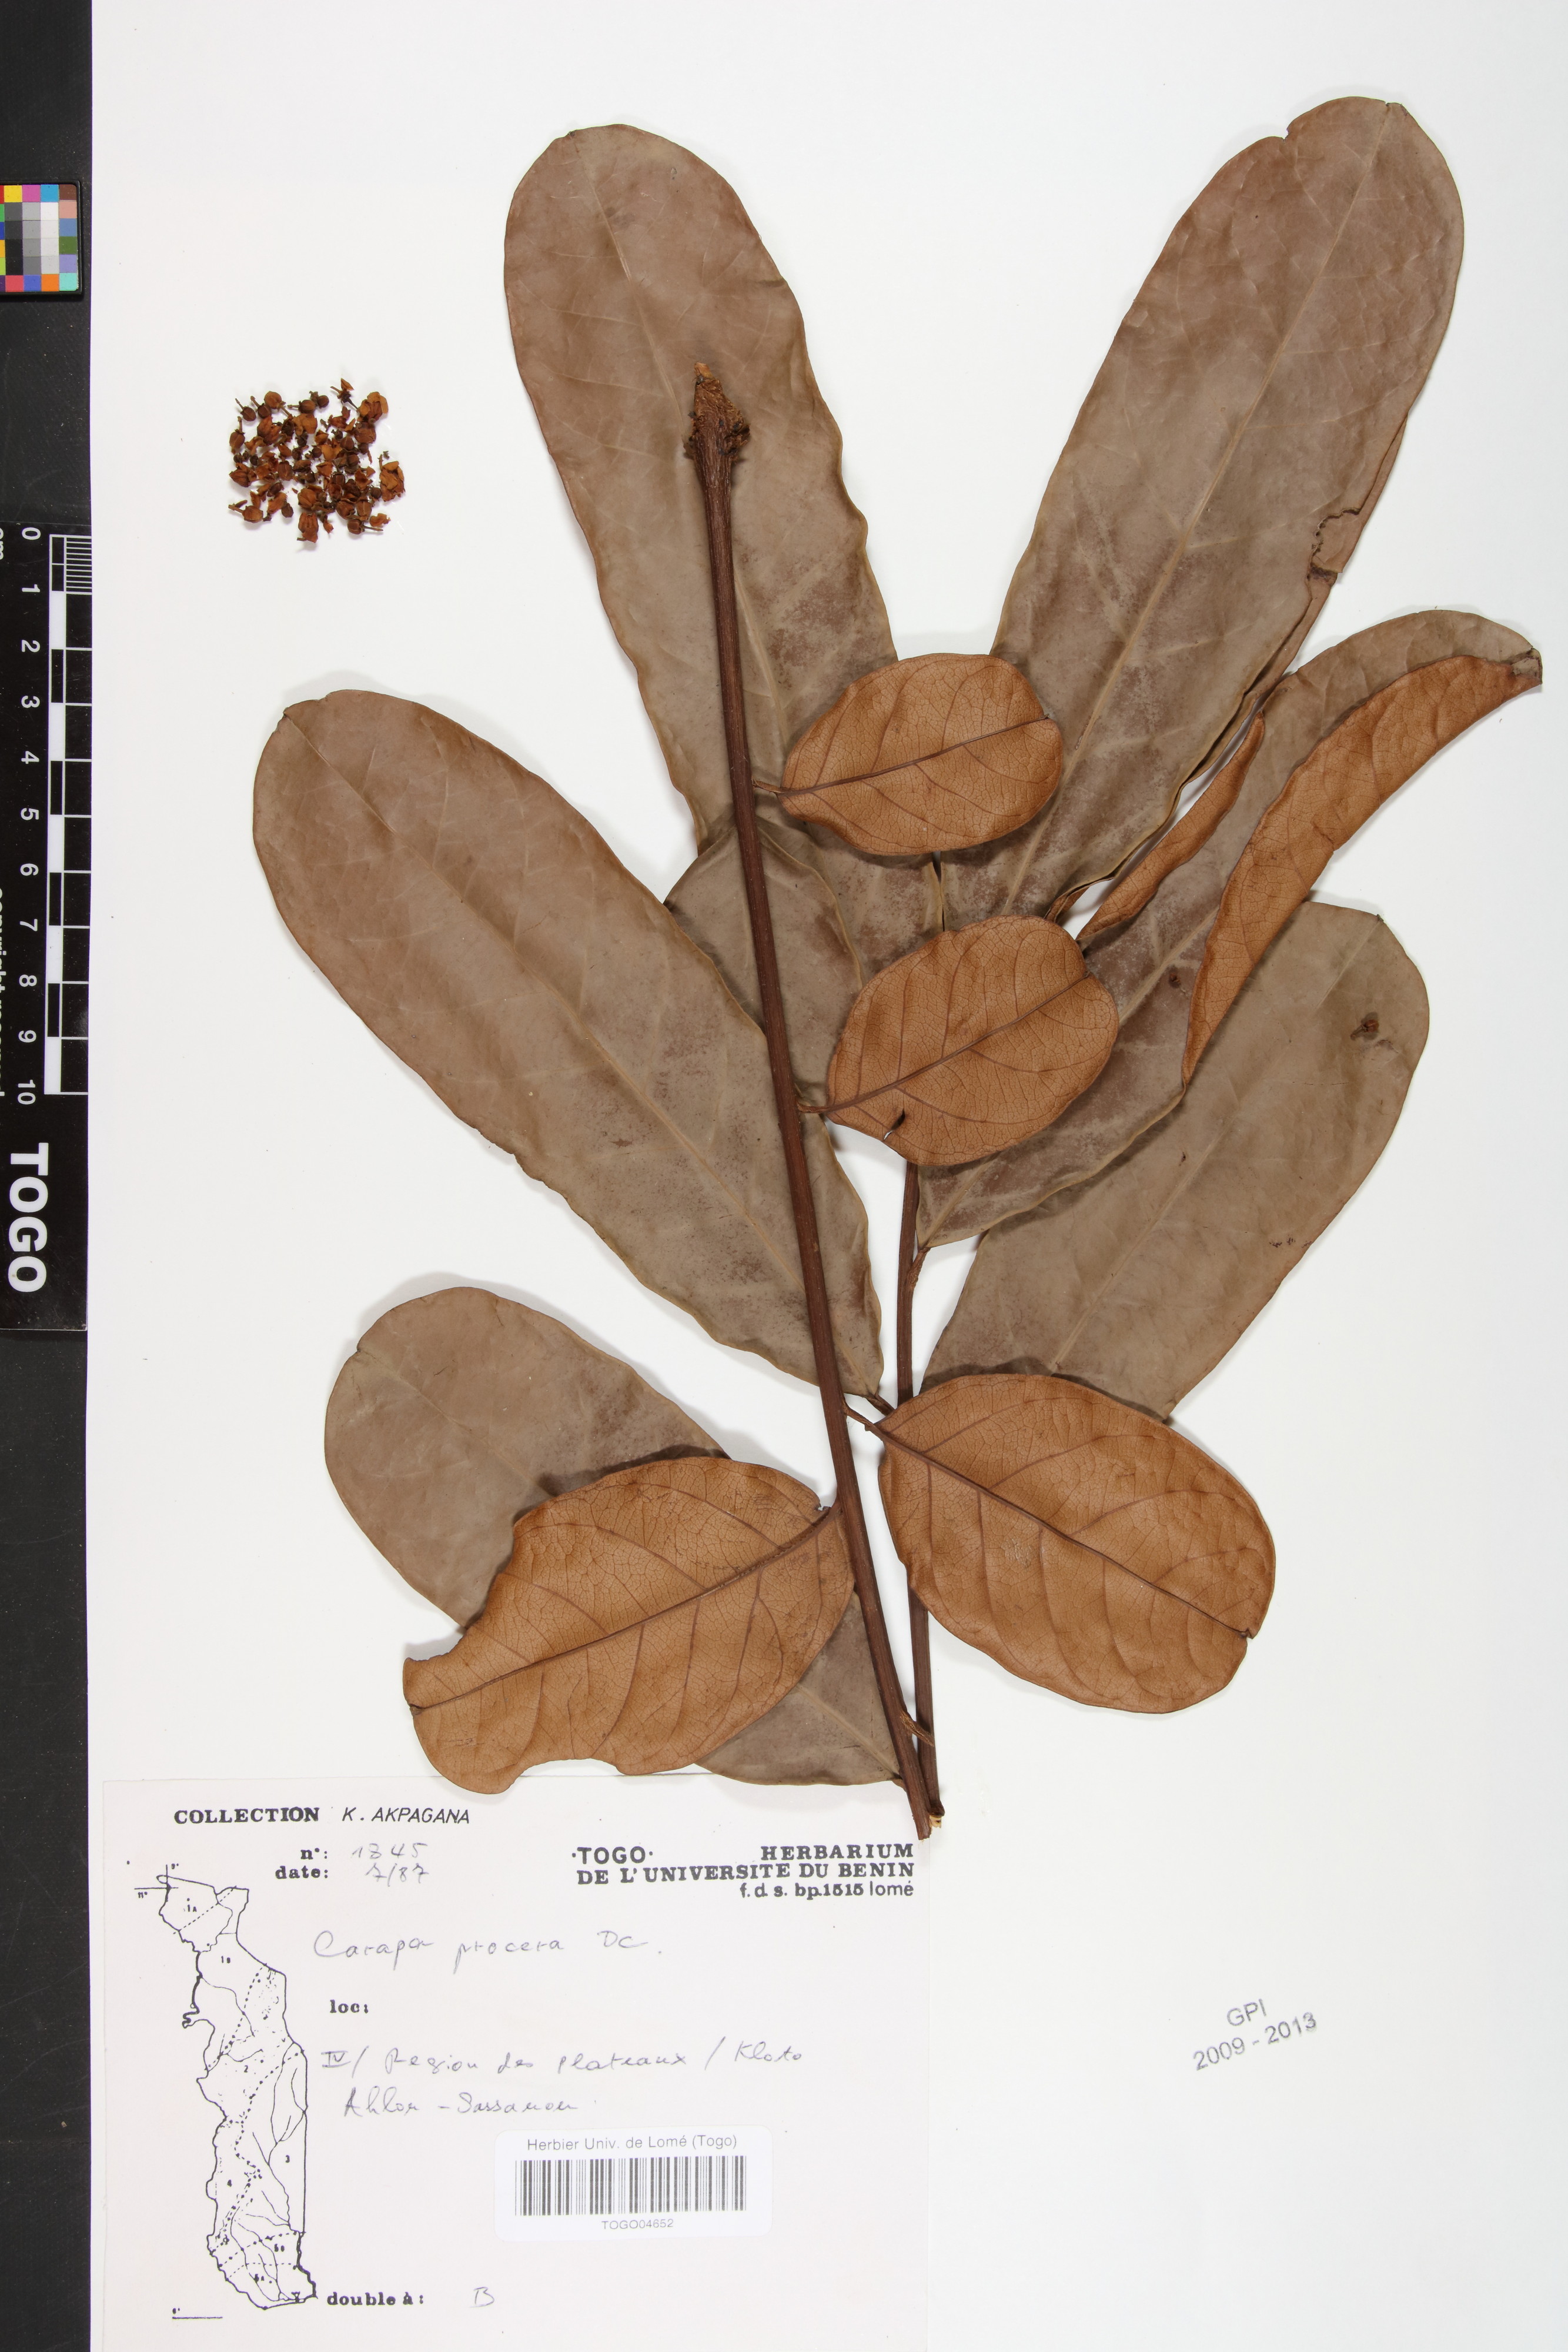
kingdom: Plantae
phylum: Tracheophyta
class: Magnoliopsida
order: Sapindales
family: Meliaceae
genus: Carapa
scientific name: Carapa procera
